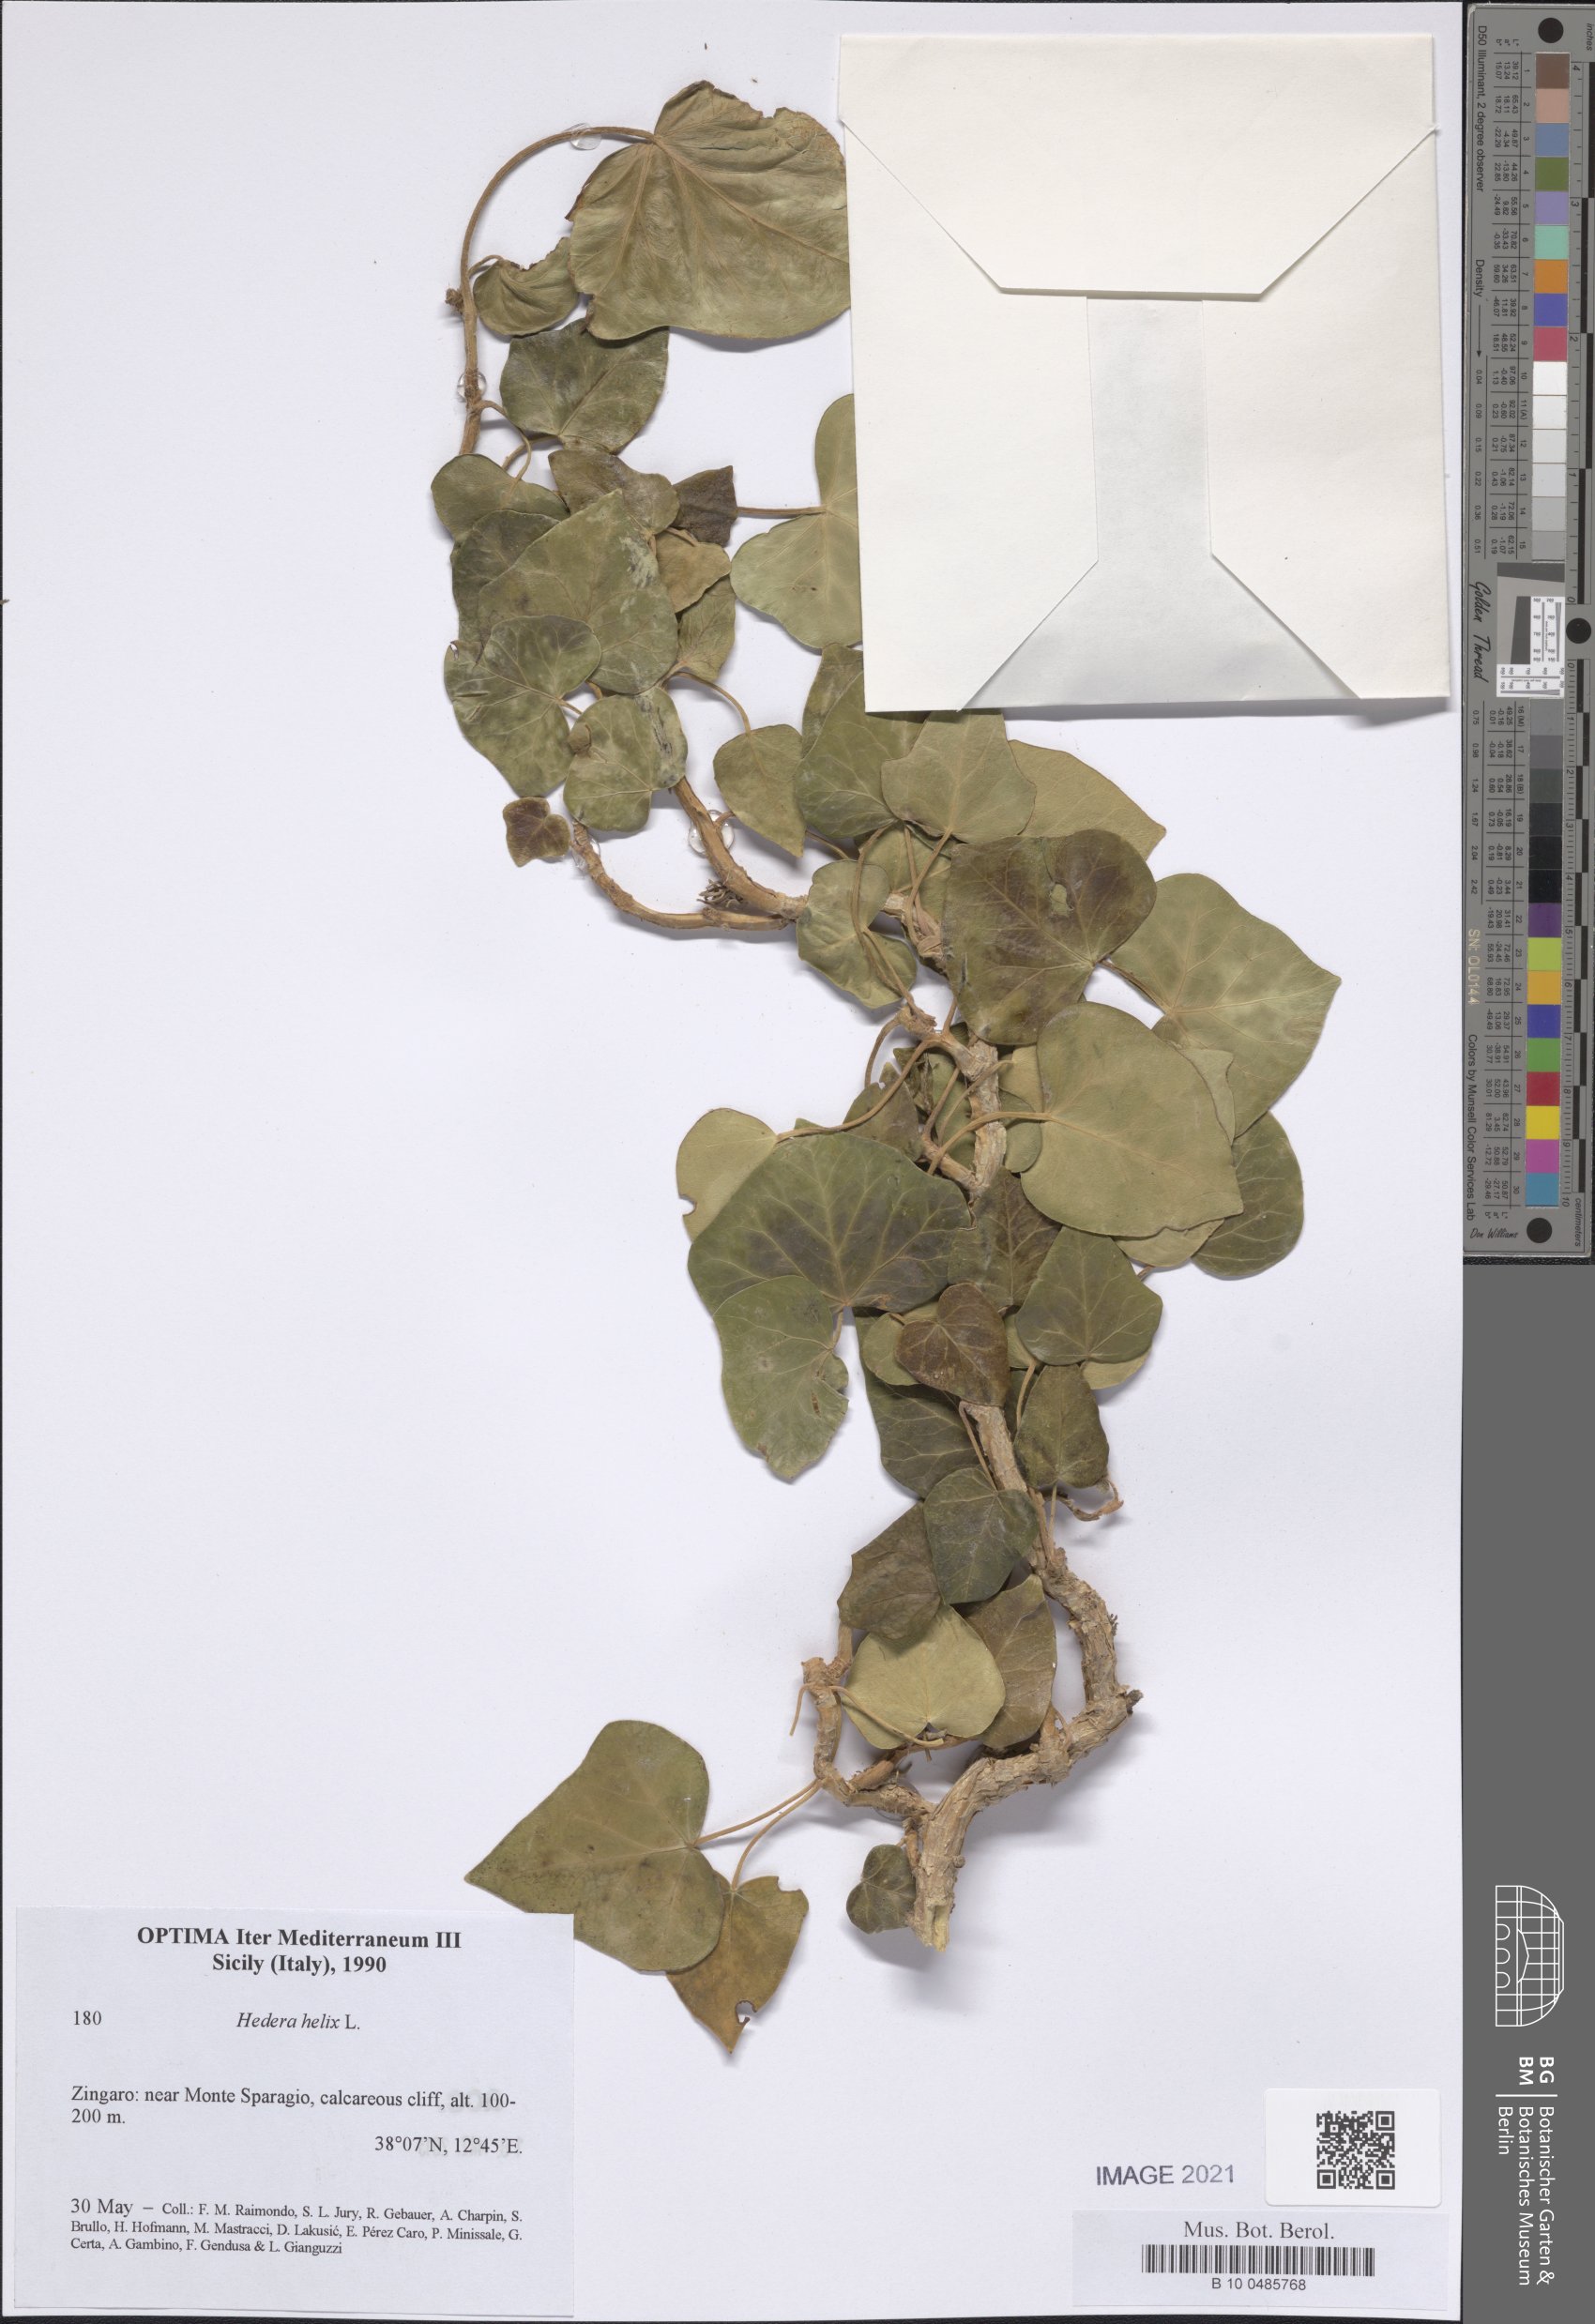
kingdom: Plantae
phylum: Tracheophyta
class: Magnoliopsida
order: Apiales
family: Araliaceae
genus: Hedera
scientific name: Hedera helix
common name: Ivy
